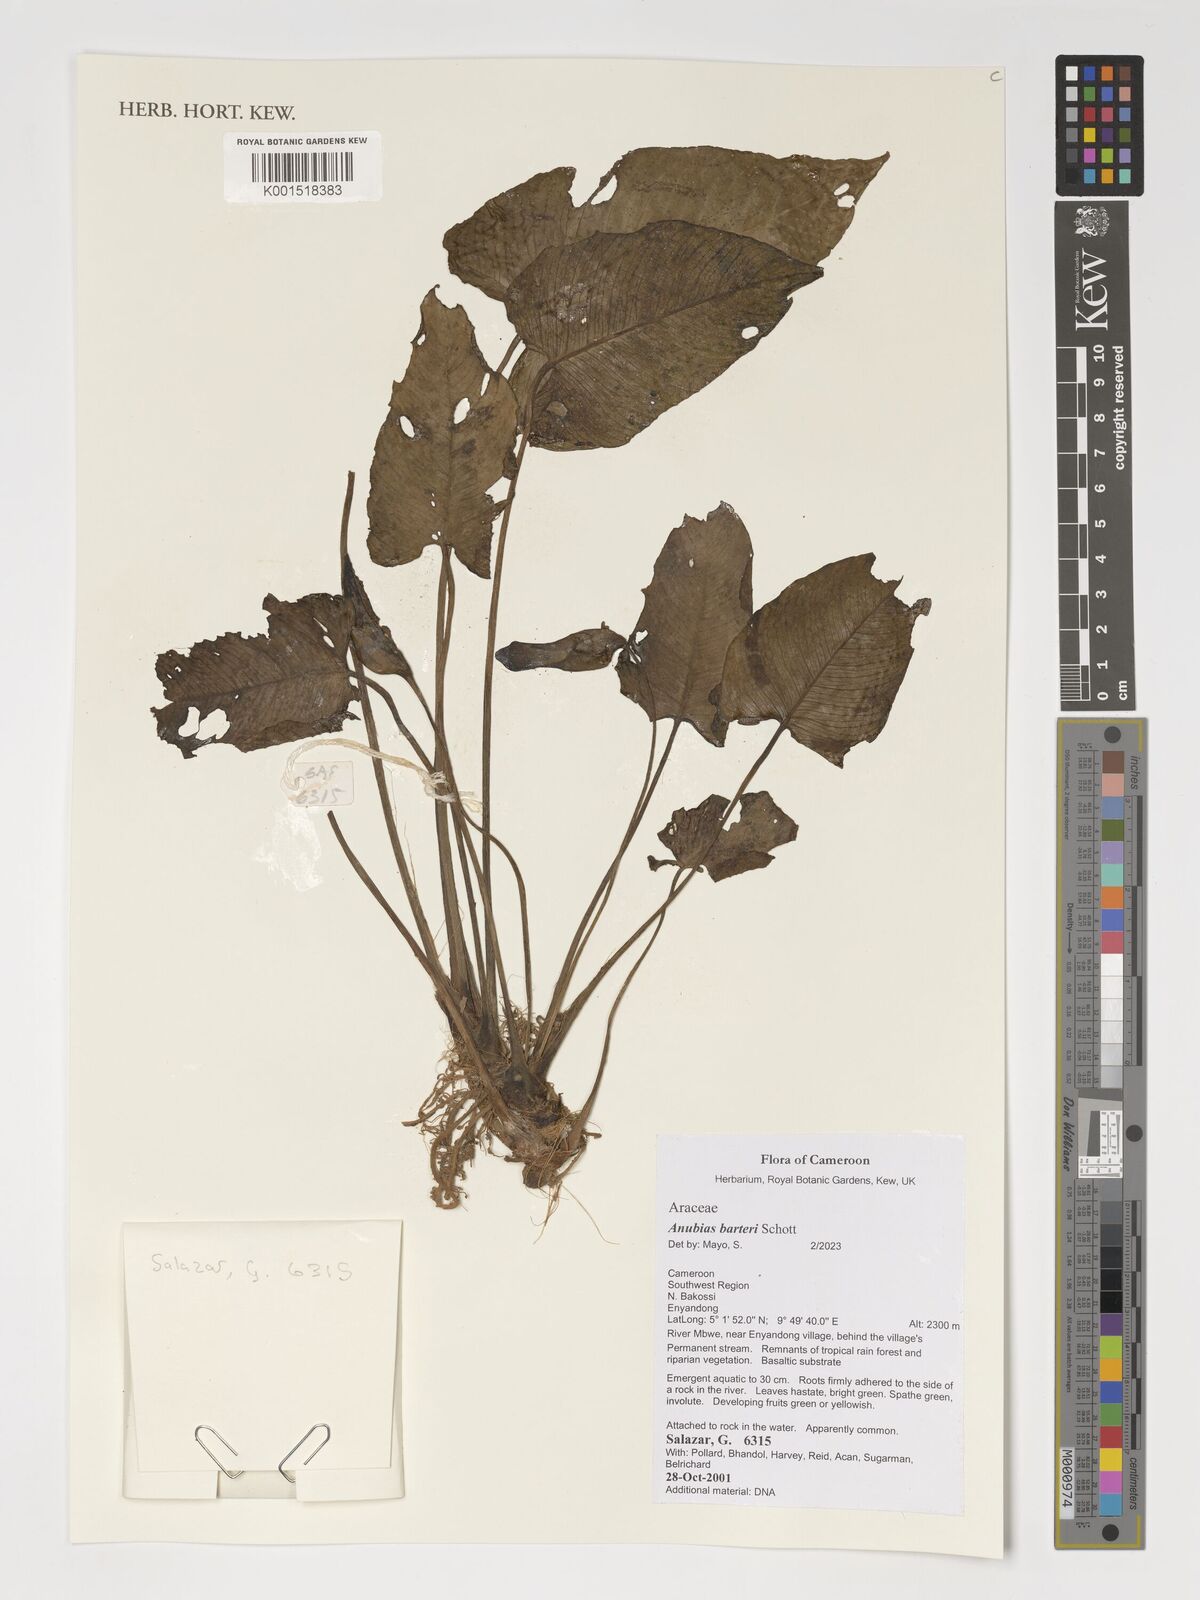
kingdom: Plantae
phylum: Tracheophyta
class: Liliopsida
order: Alismatales
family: Araceae
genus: Anubias
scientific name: Anubias barteri
